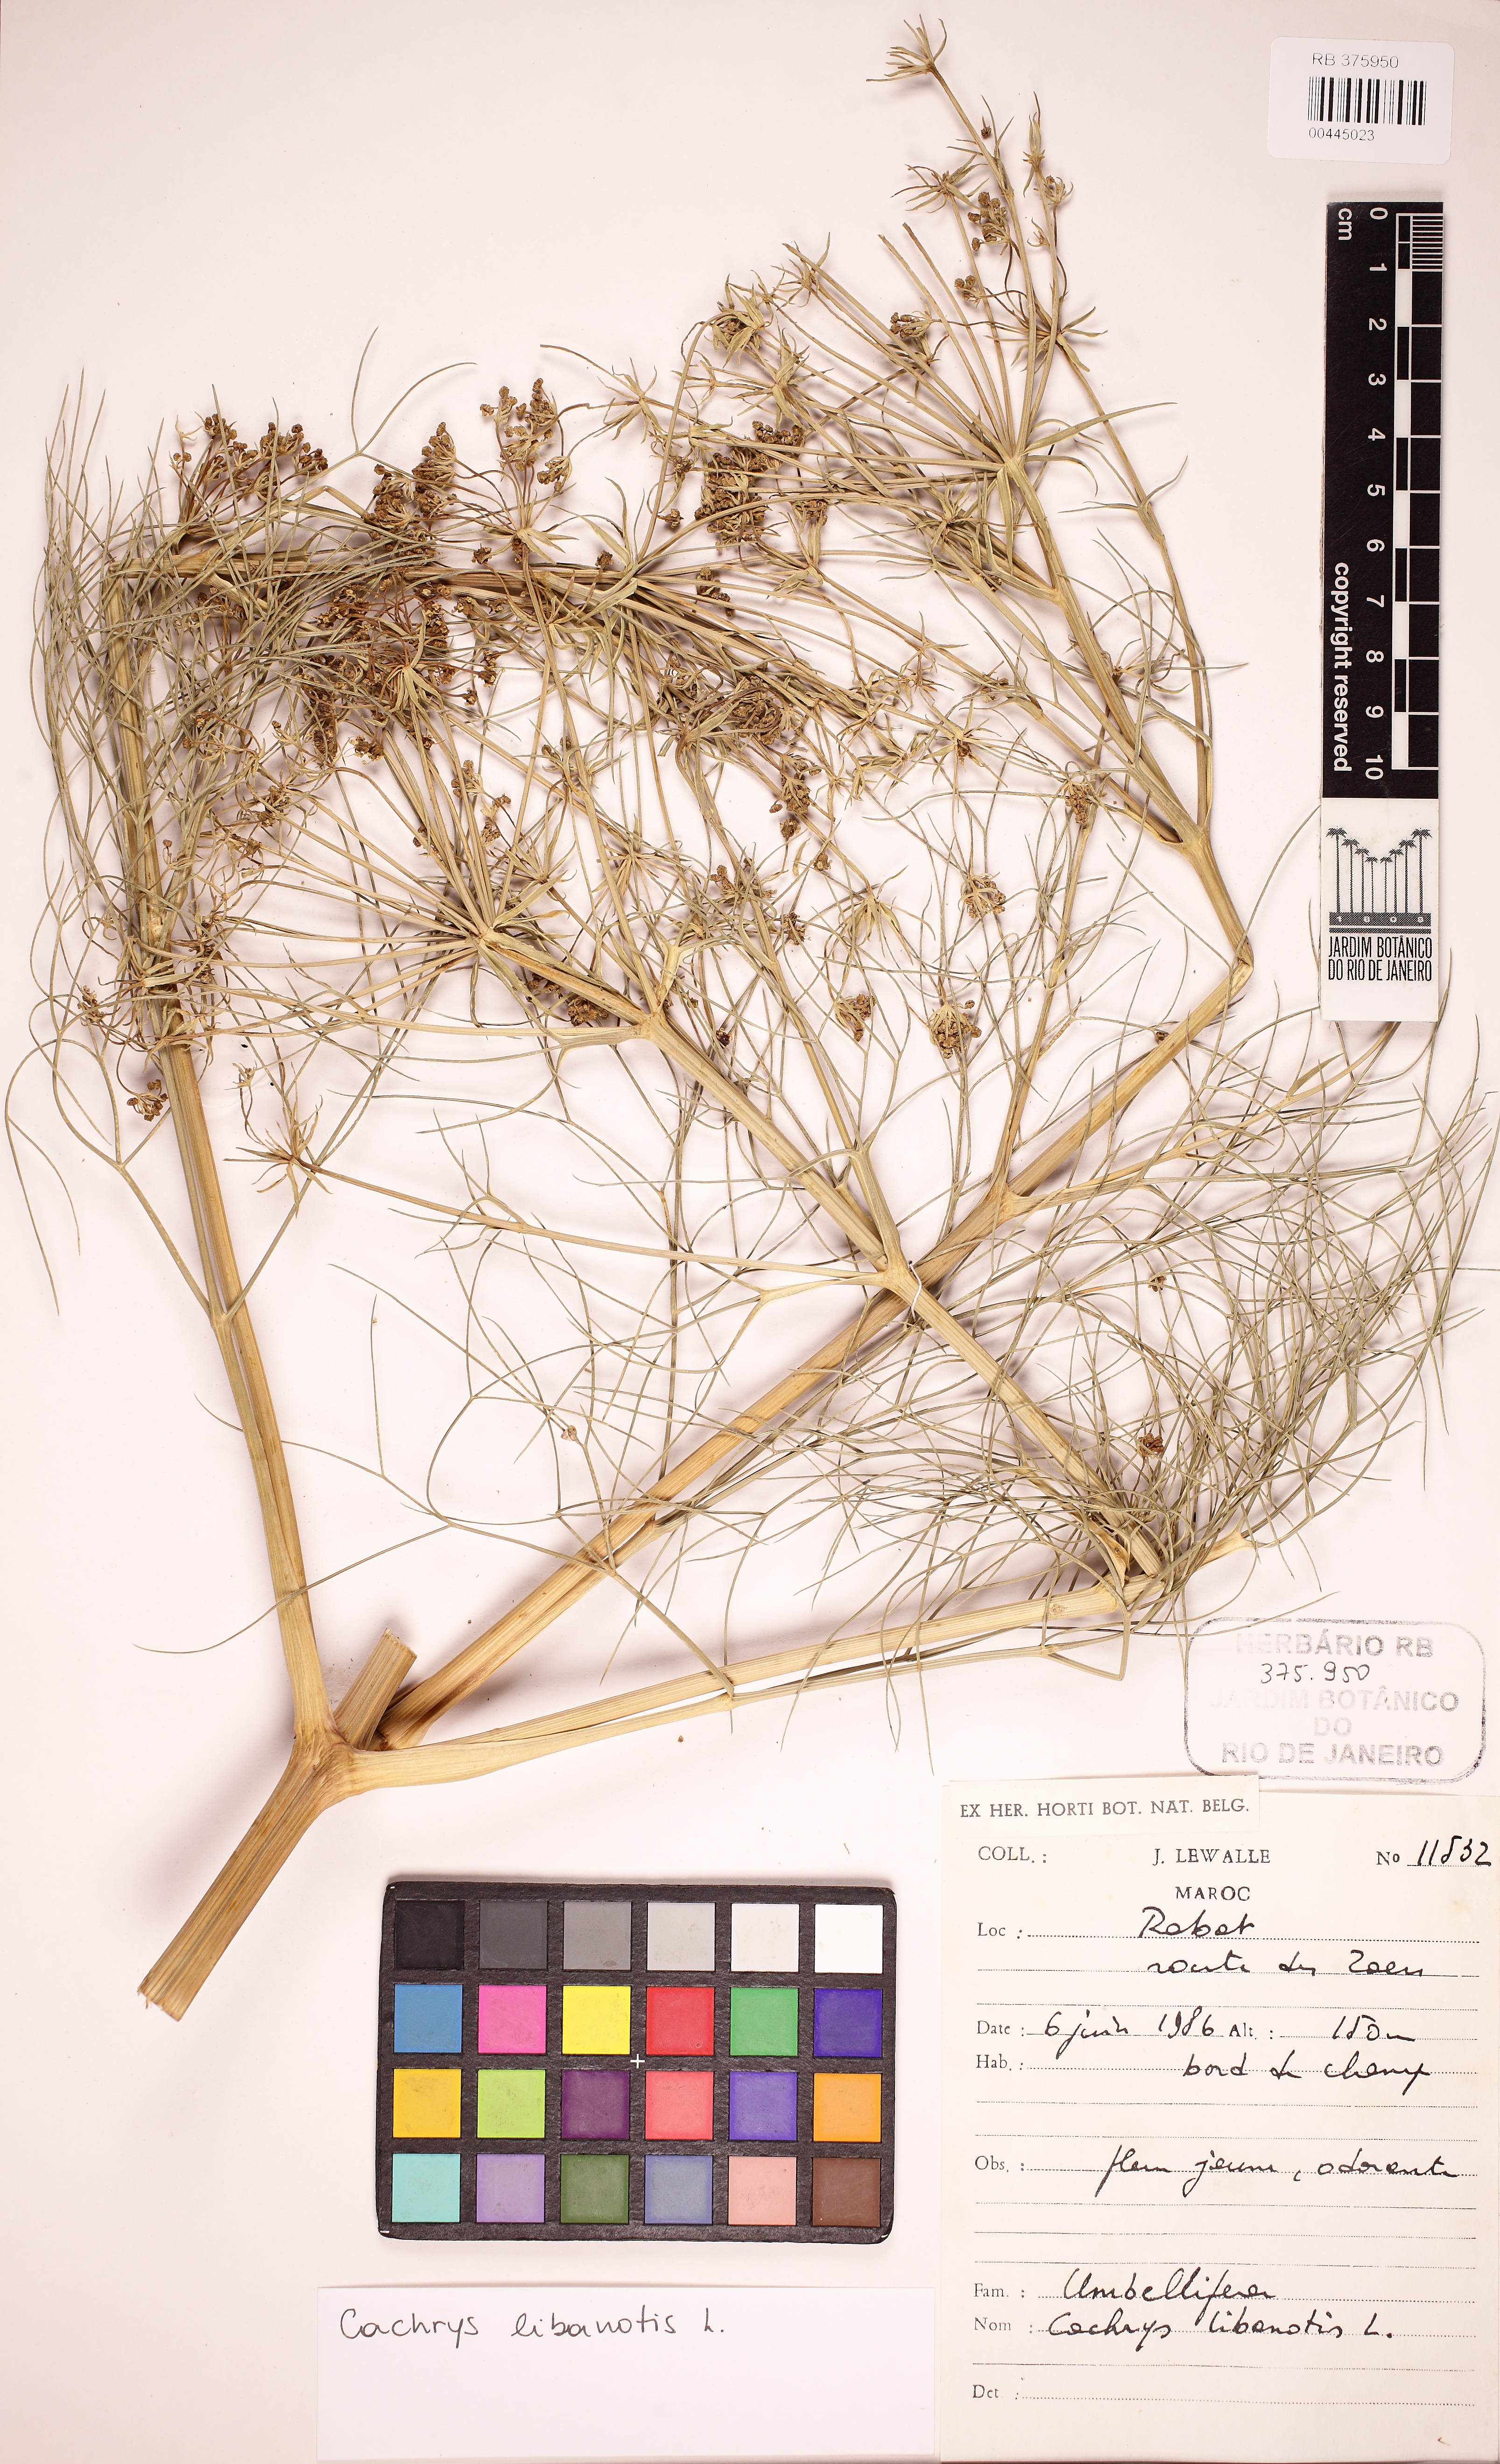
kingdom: Plantae
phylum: Tracheophyta
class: Magnoliopsida
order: Apiales
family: Apiaceae
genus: Cachrys
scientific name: Cachrys libanotis
